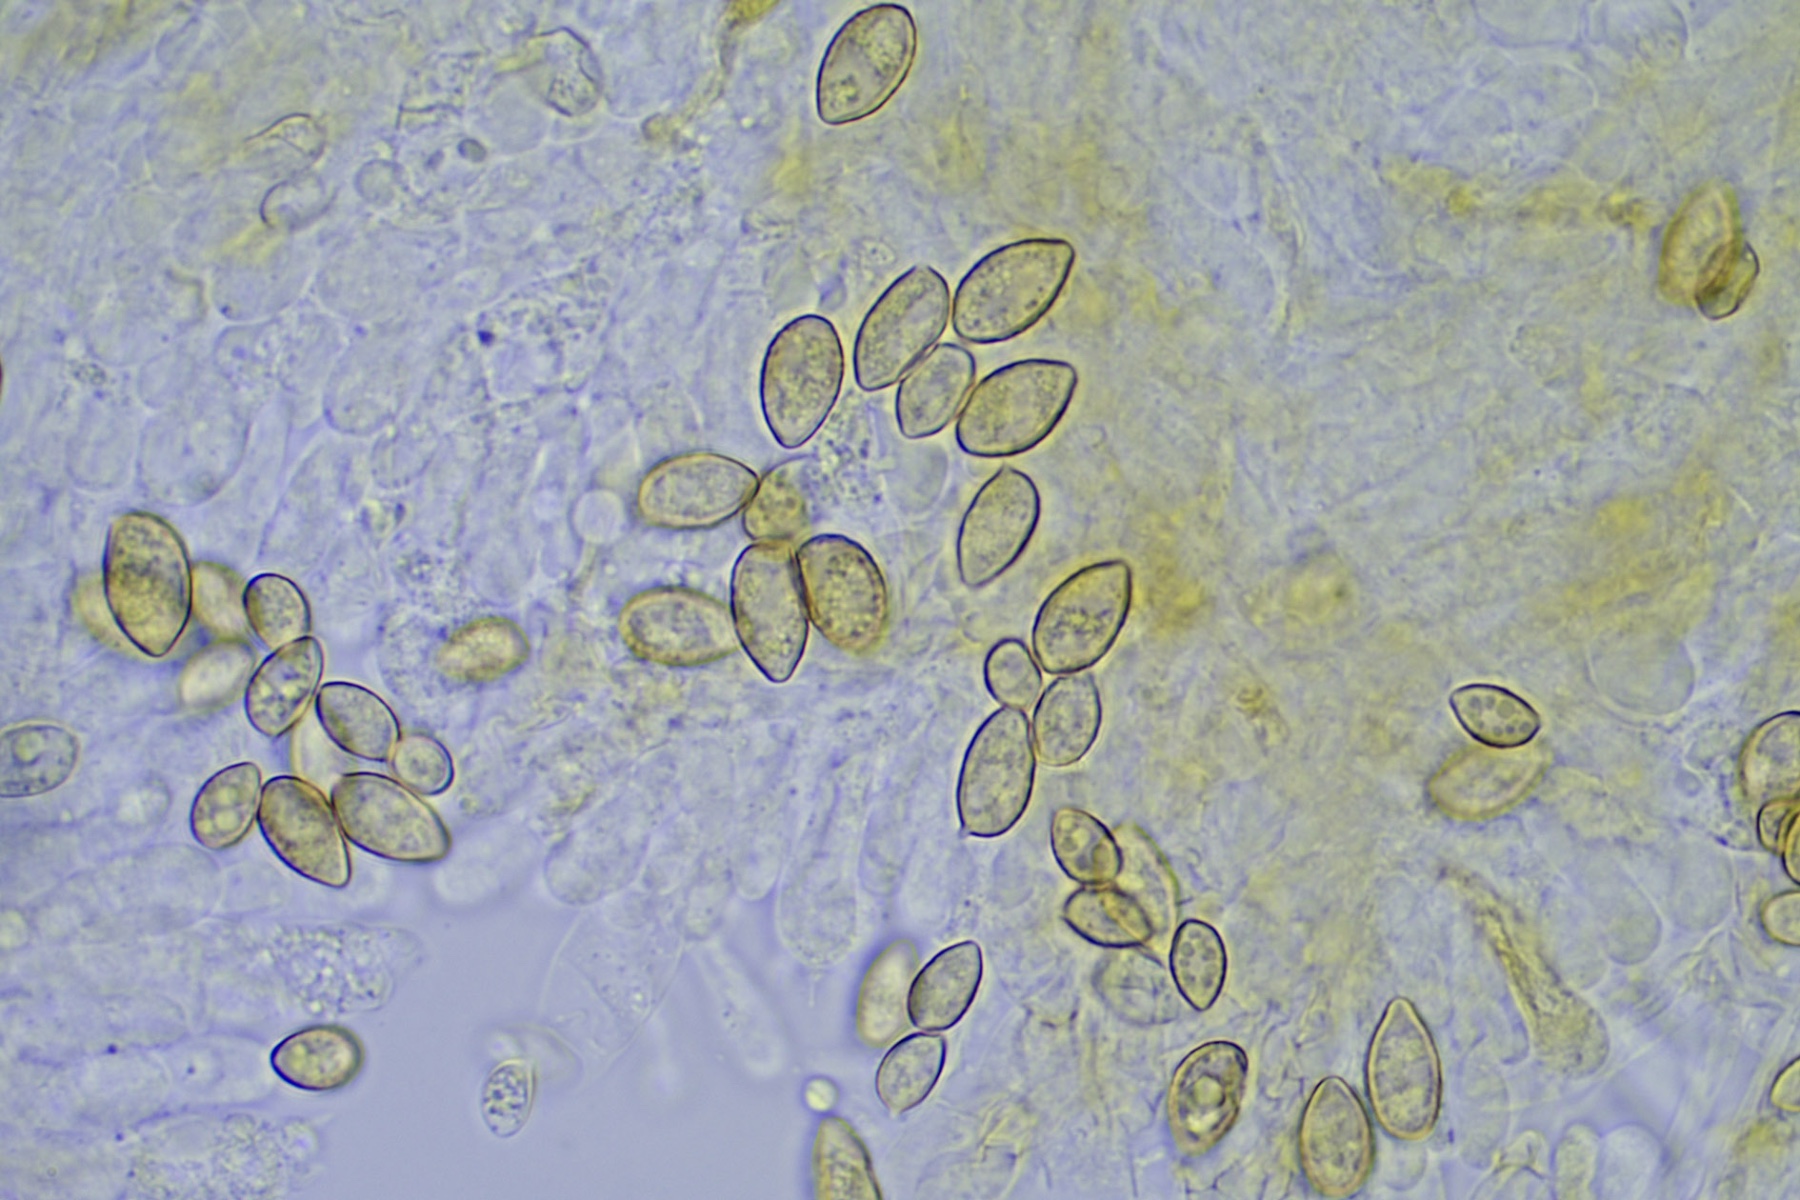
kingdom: Fungi
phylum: Basidiomycota
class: Agaricomycetes
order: Agaricales
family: Hymenogastraceae
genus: Galerina
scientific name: Galerina
